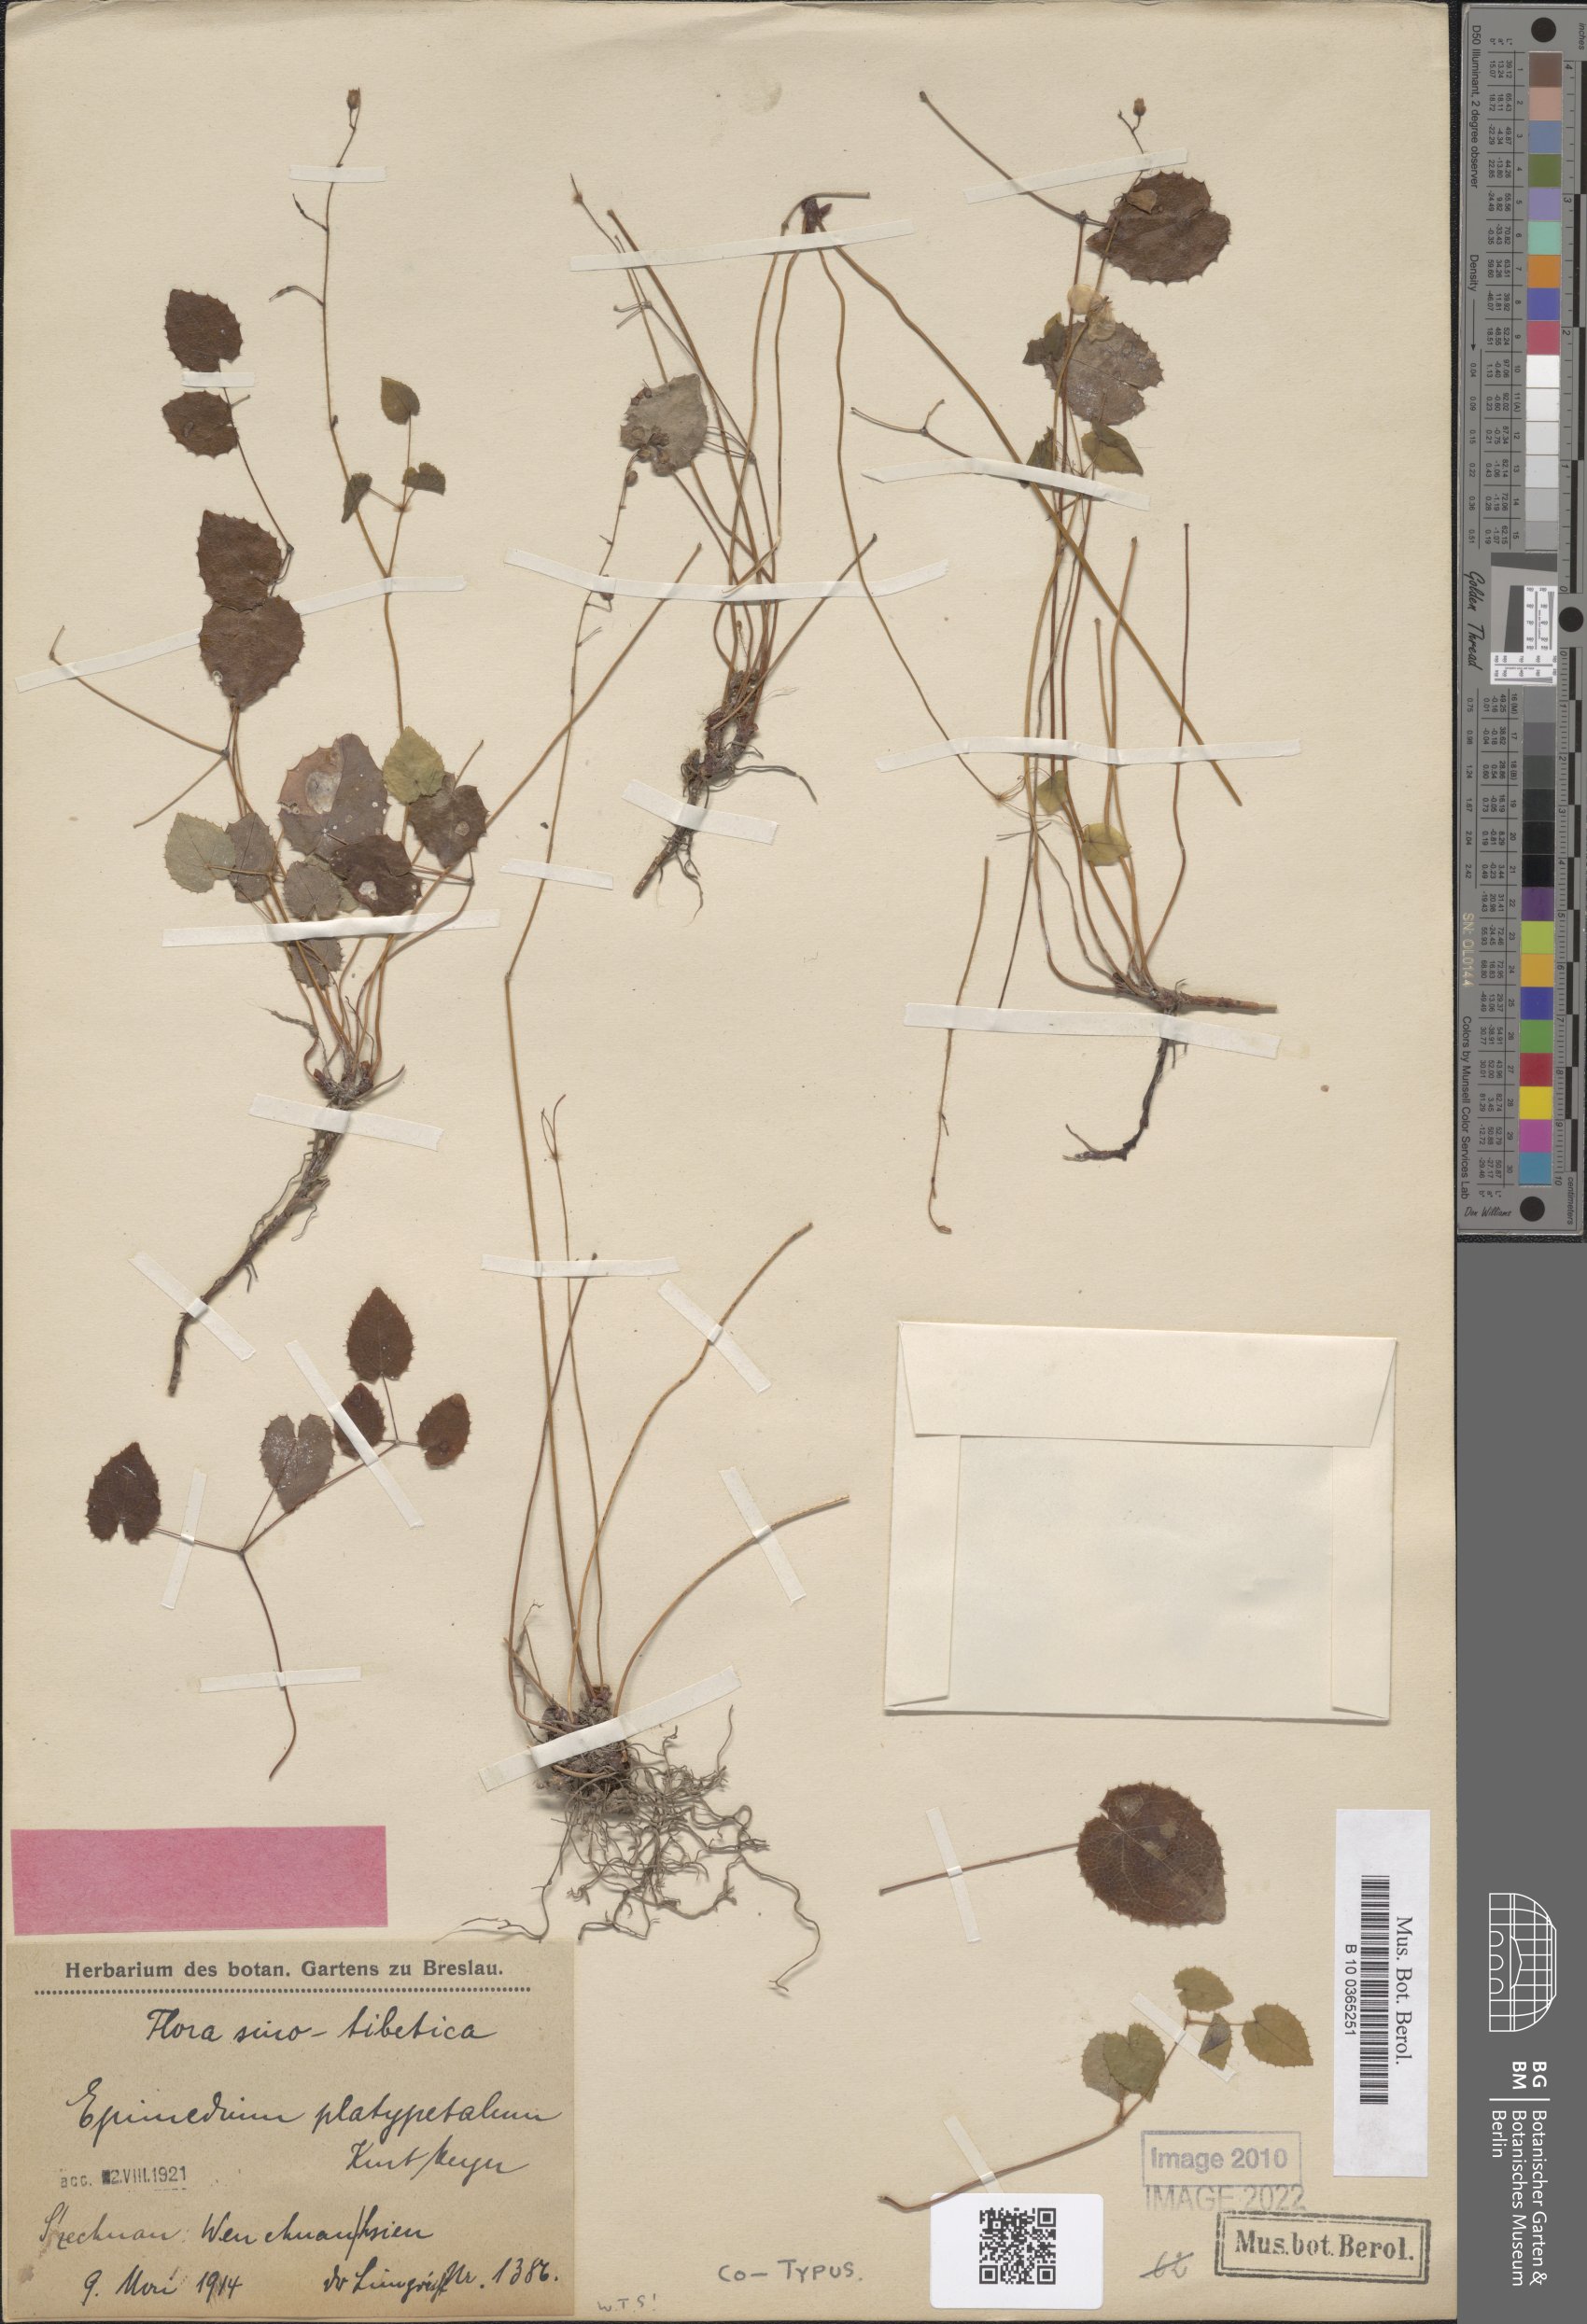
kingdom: Plantae
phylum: Tracheophyta
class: Magnoliopsida
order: Ranunculales
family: Berberidaceae
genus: Epimedium
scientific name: Epimedium platypetalum
